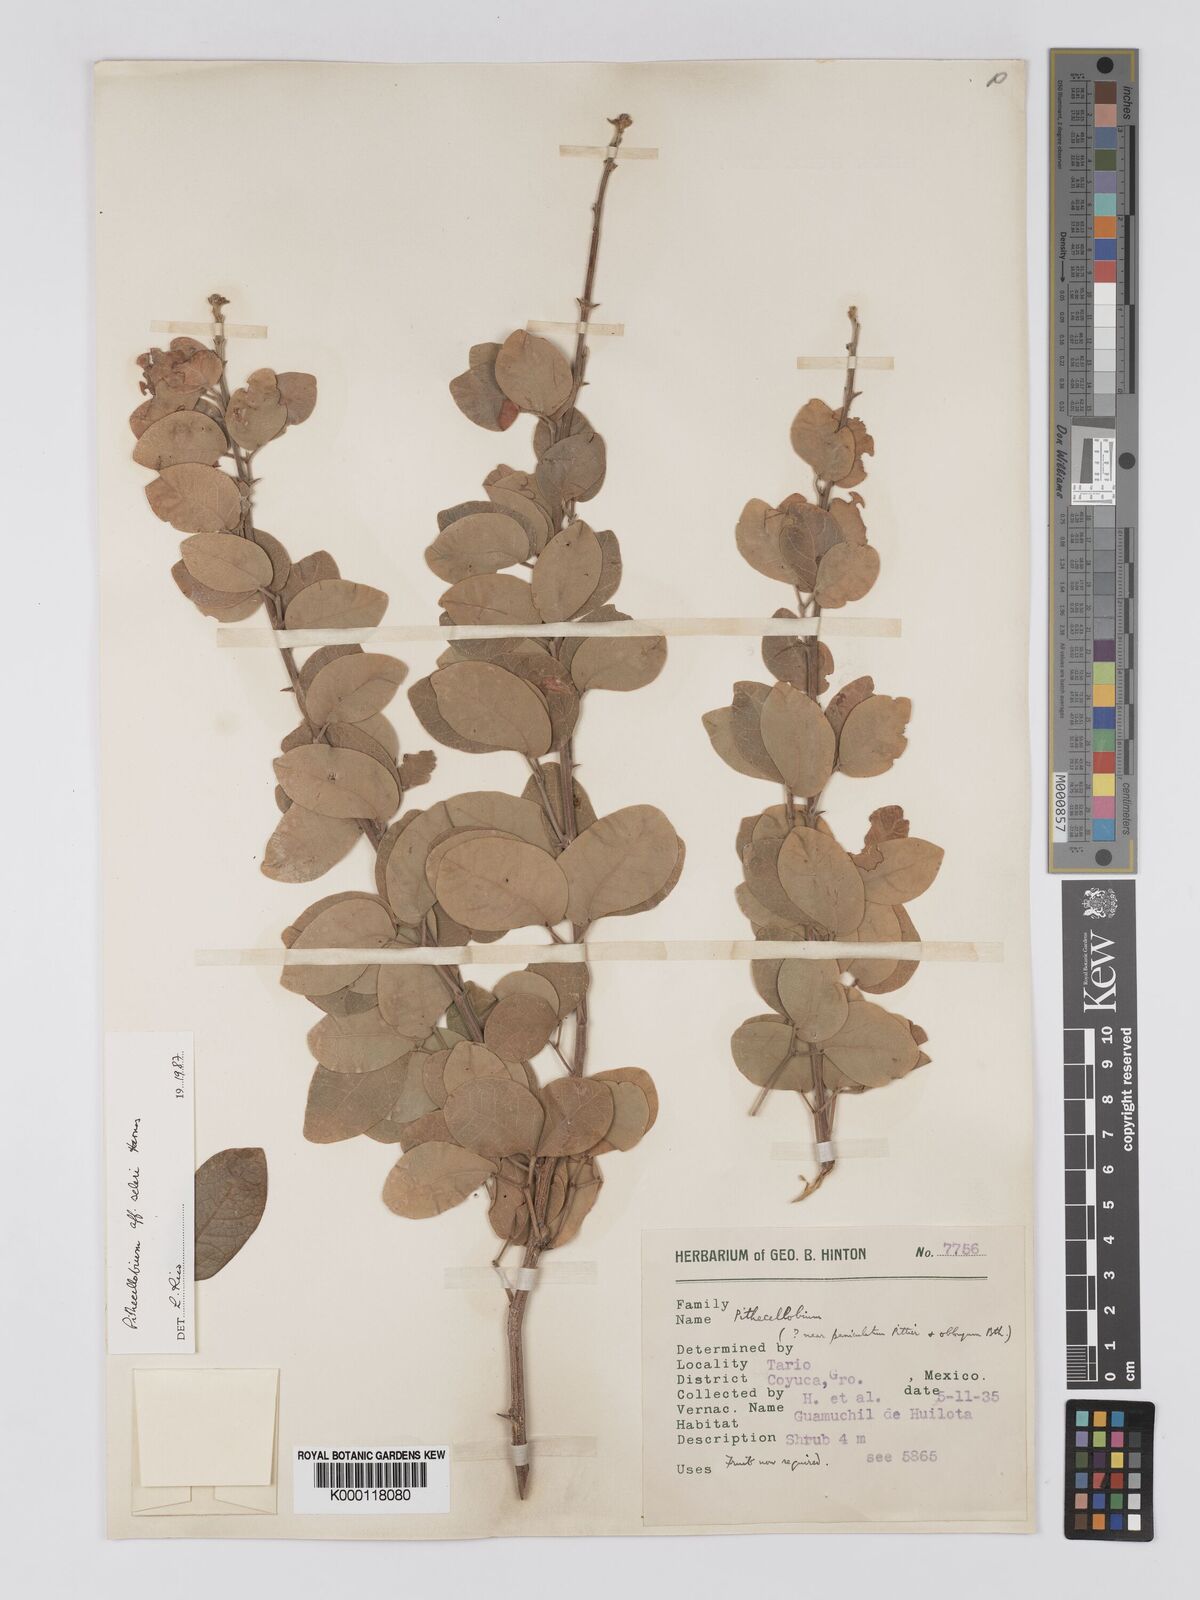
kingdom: Plantae
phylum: Tracheophyta
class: Magnoliopsida
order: Fabales
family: Fabaceae
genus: Pithecellobium
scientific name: Pithecellobium unguis-cati
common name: Cat's-claw
